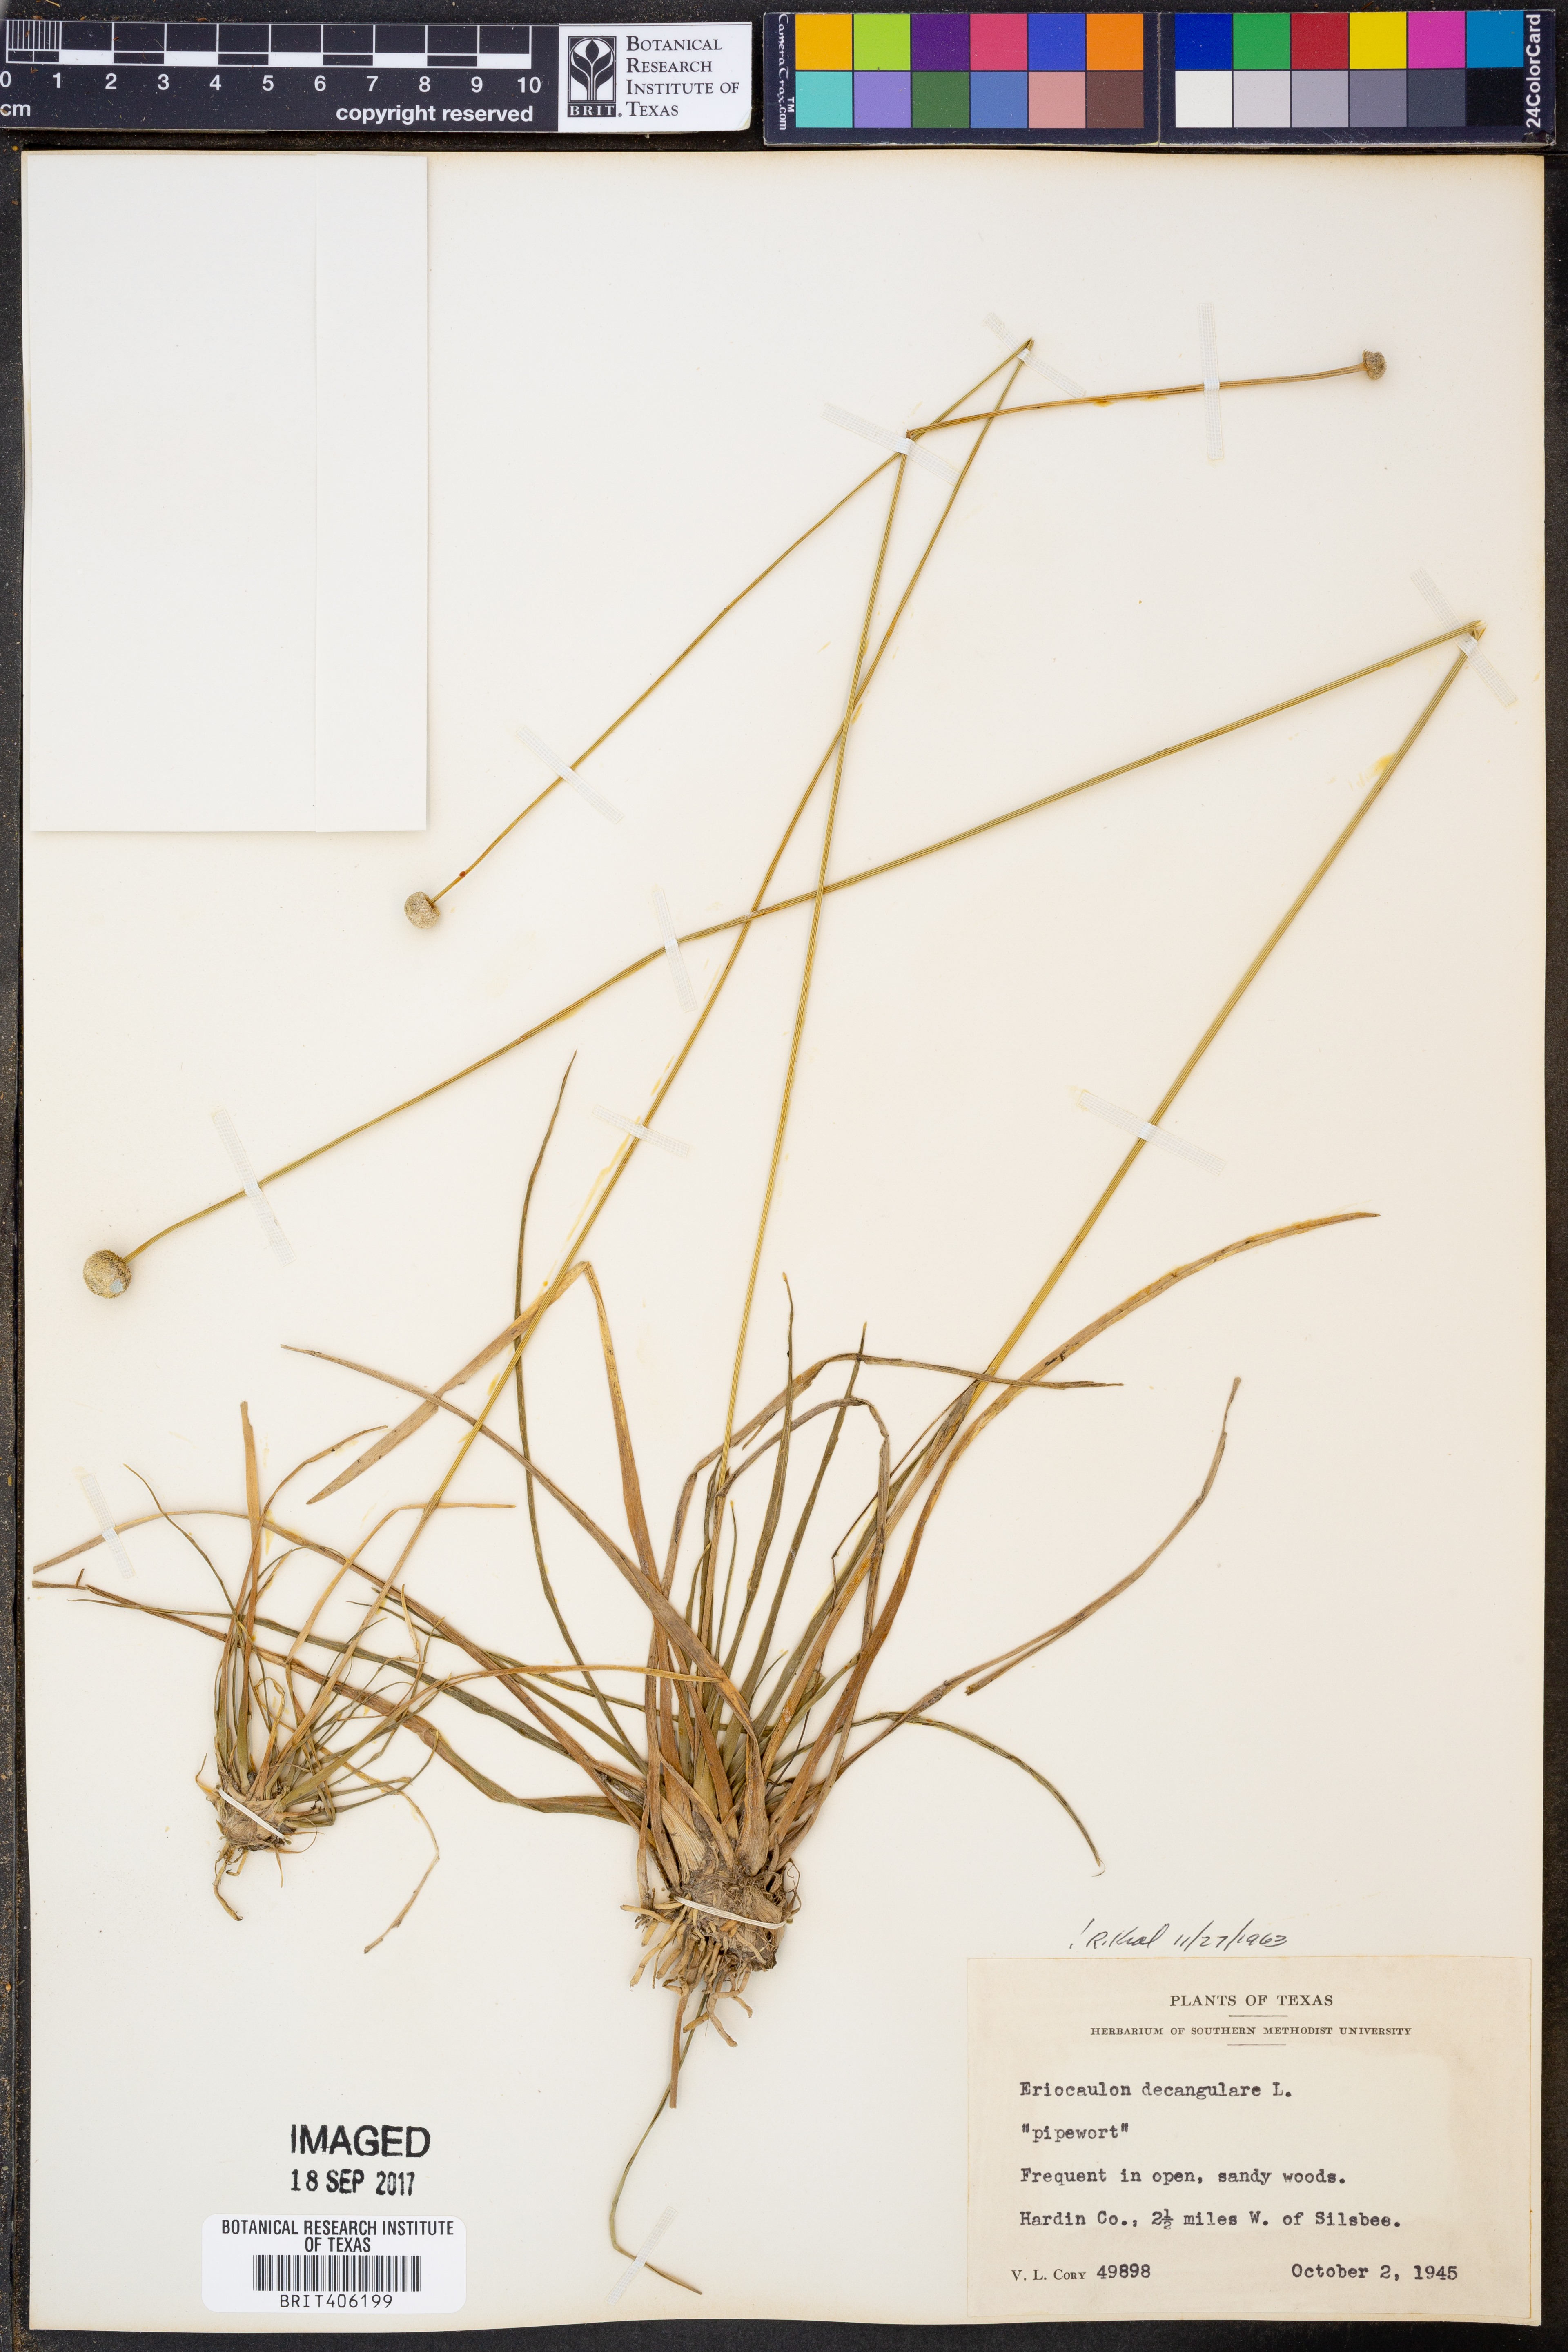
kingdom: Plantae
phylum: Tracheophyta
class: Liliopsida
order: Poales
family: Eriocaulaceae
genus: Eriocaulon
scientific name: Eriocaulon decangulare
